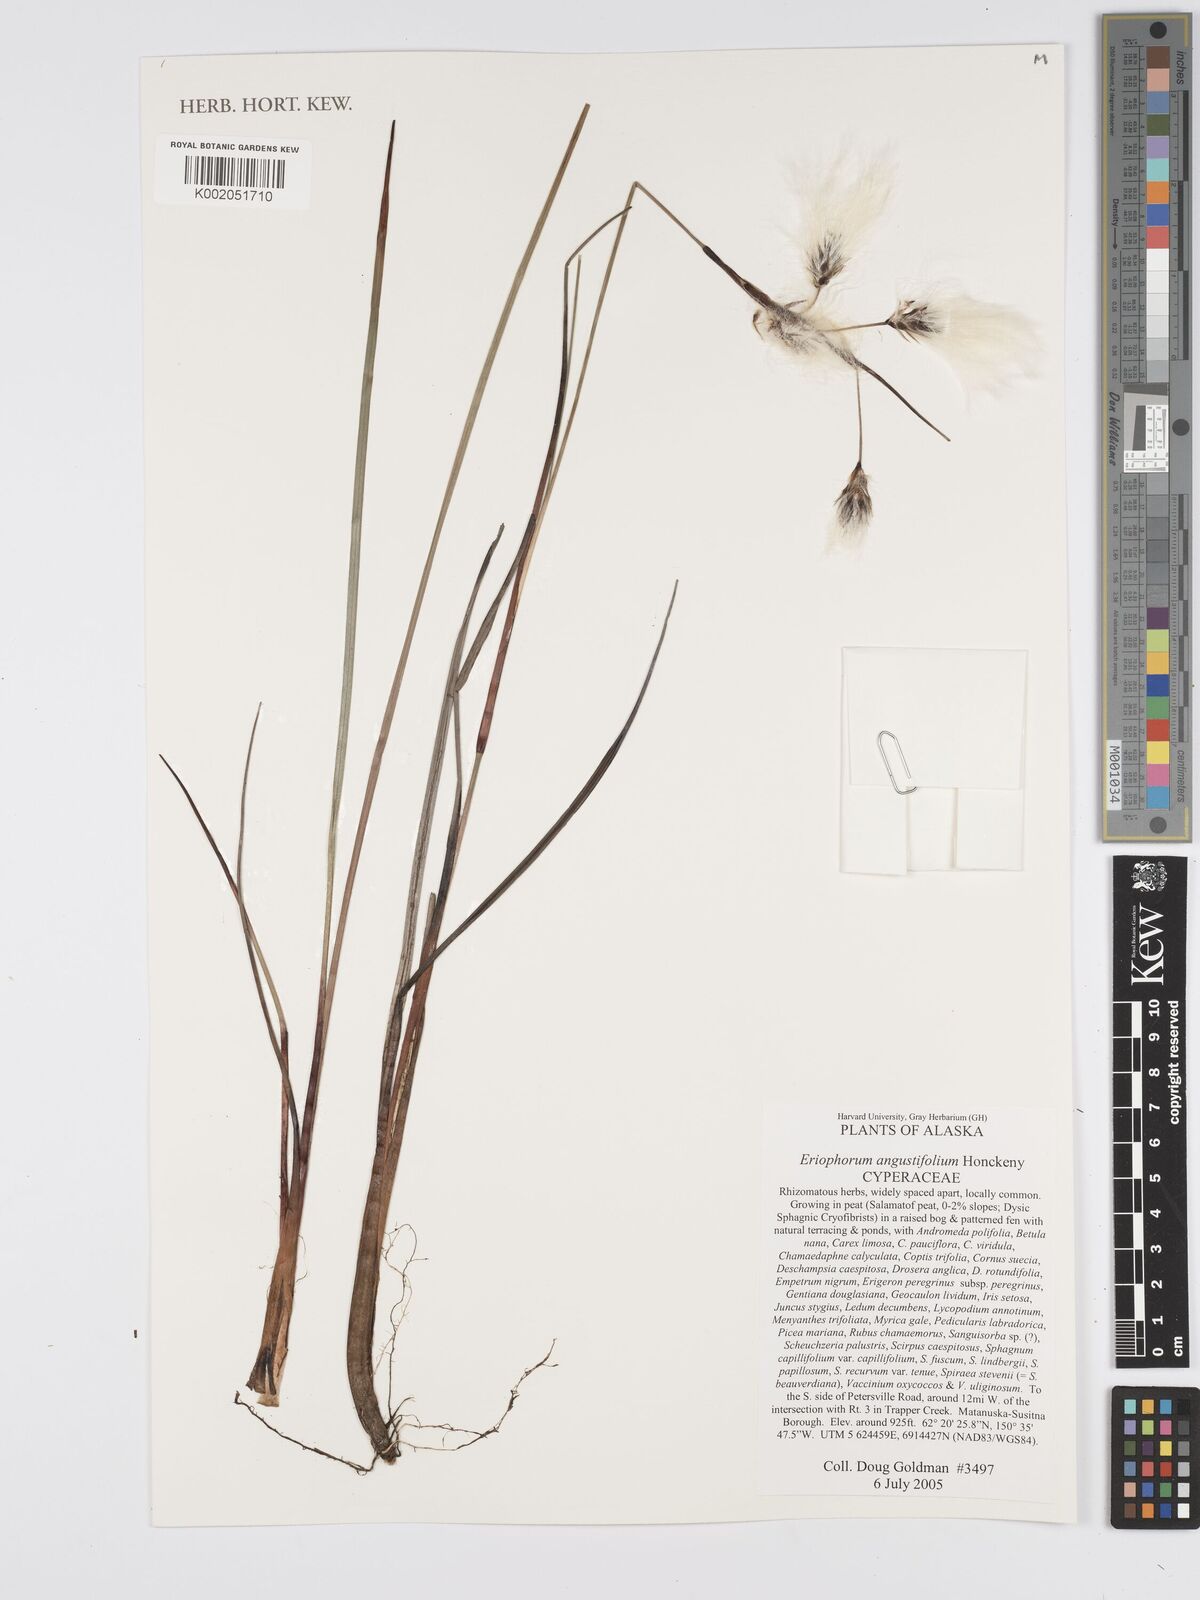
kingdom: Plantae
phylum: Tracheophyta
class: Liliopsida
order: Poales
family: Cyperaceae
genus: Eriophorum
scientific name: Eriophorum angustifolium
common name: Common cottongrass
